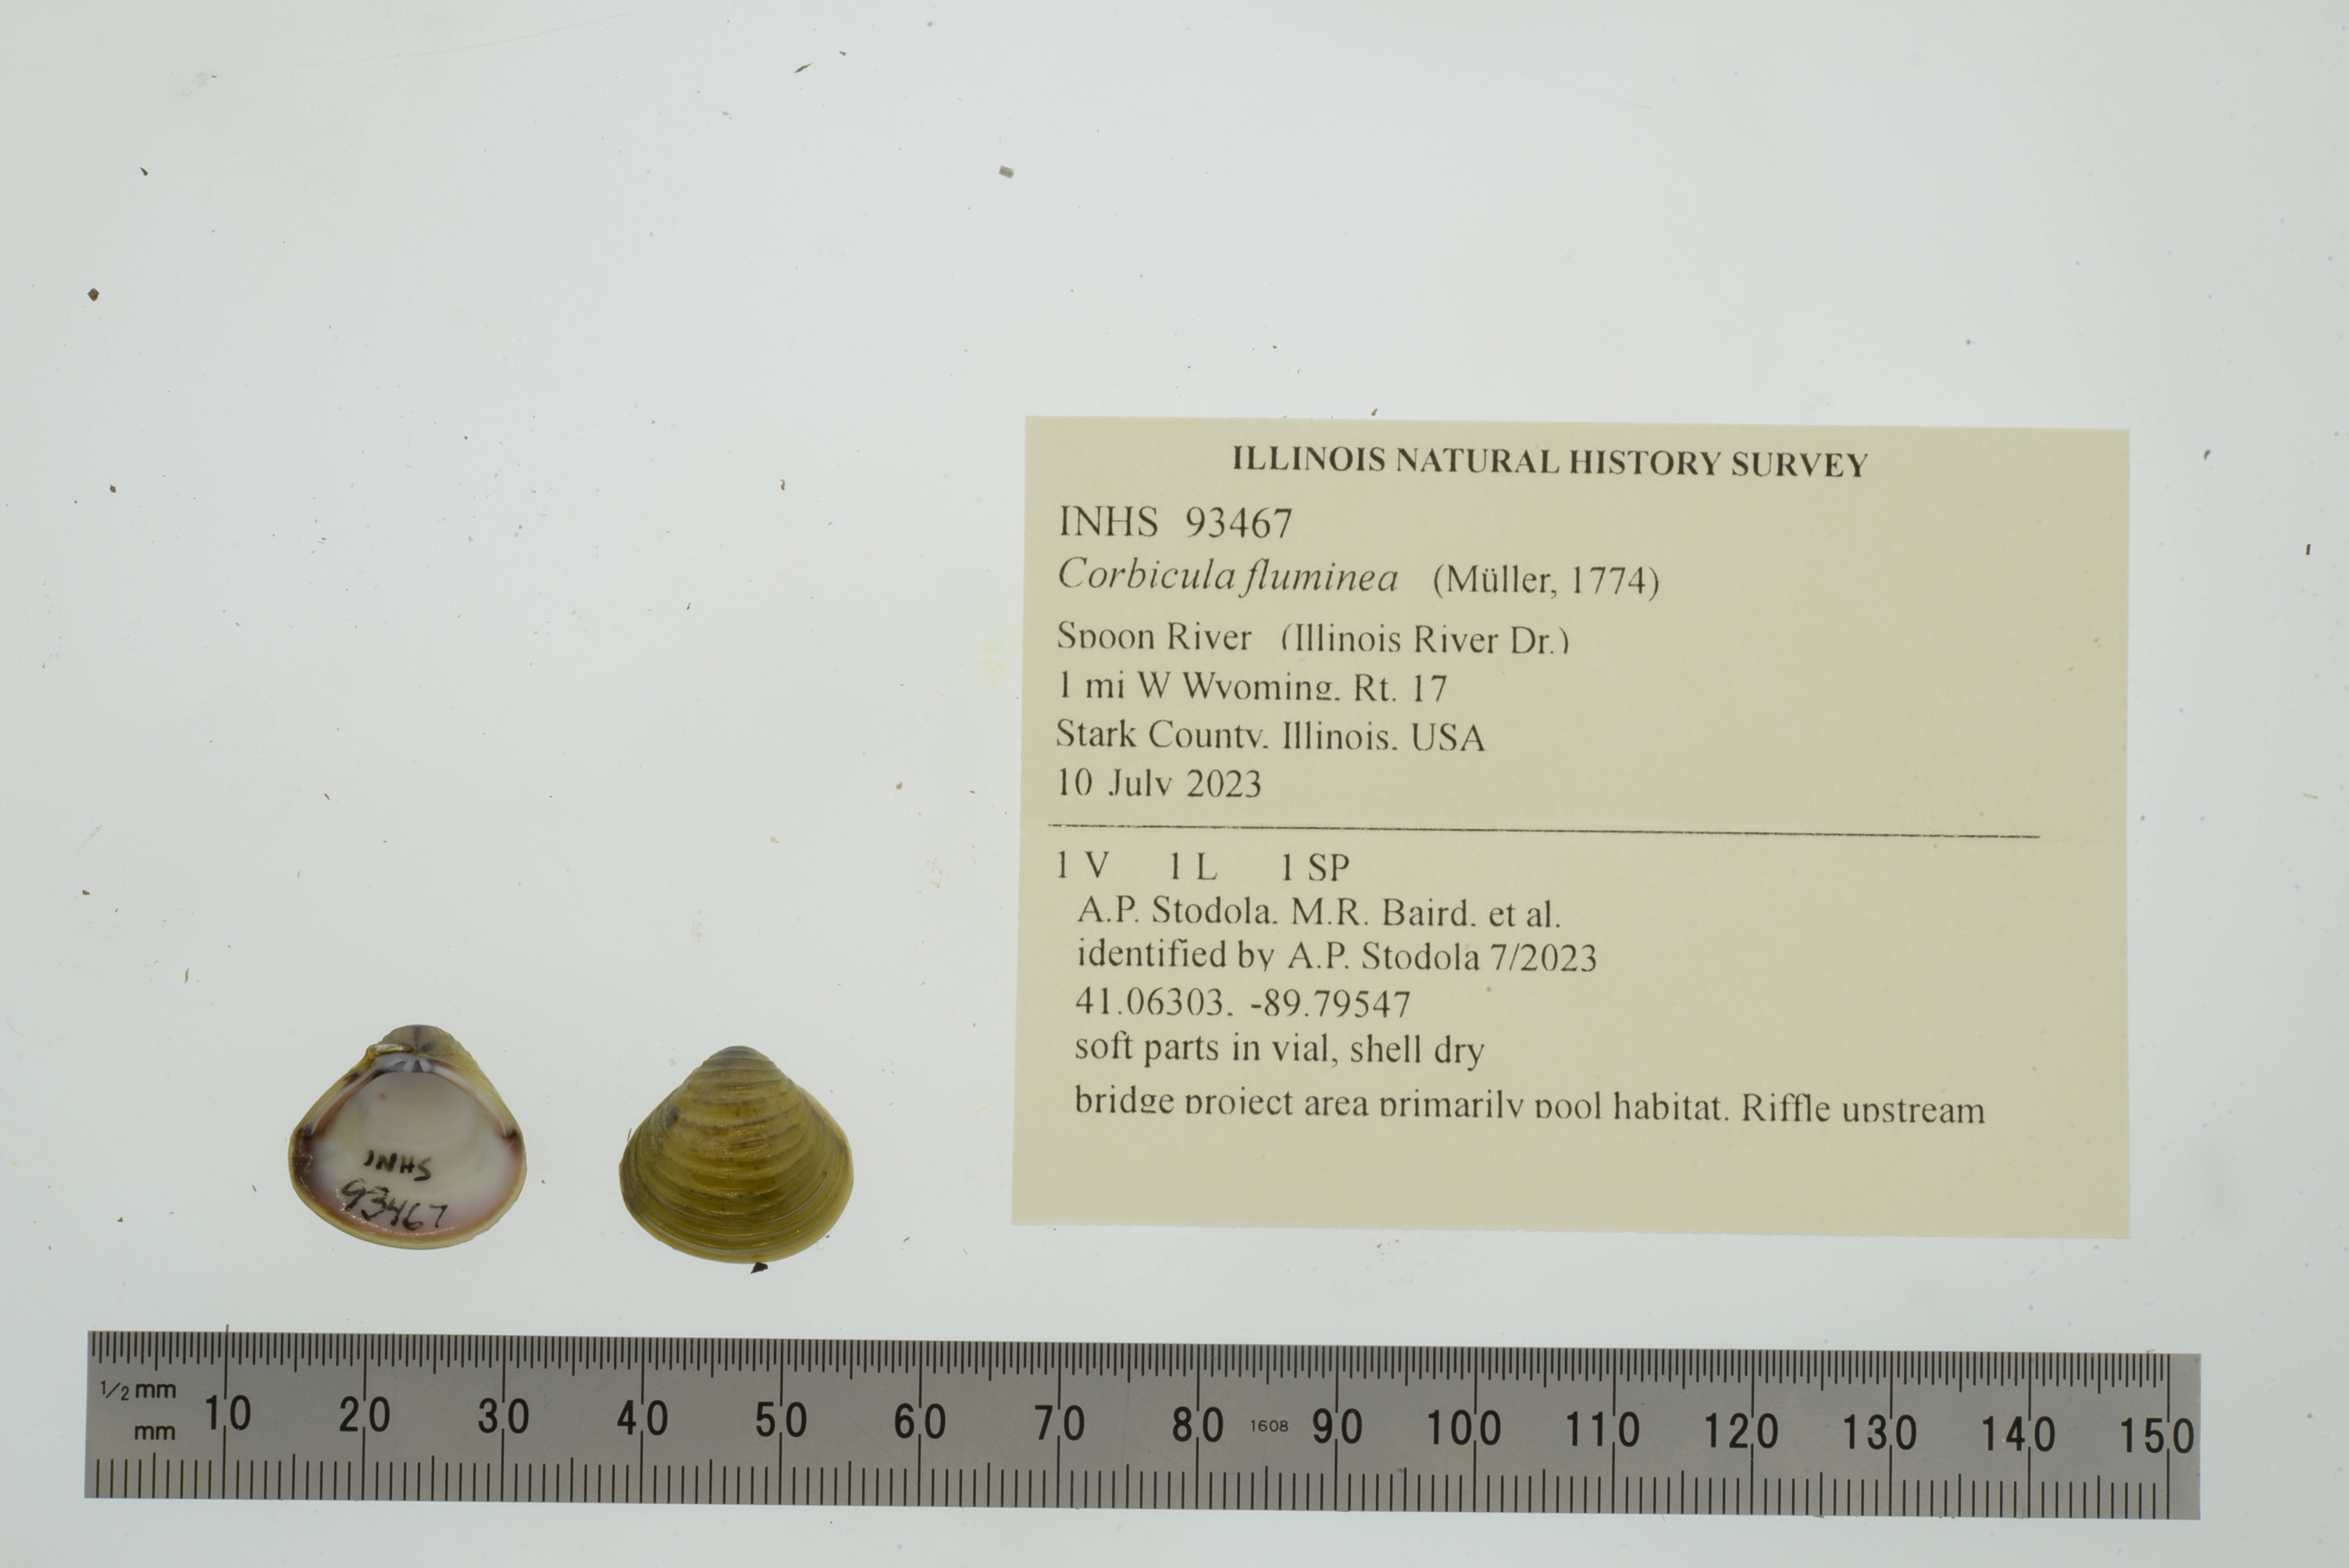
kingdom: Animalia
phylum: Mollusca
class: Bivalvia
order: Venerida
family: Cyrenidae
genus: Corbicula
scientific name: Corbicula fluminea
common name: Asian clam
